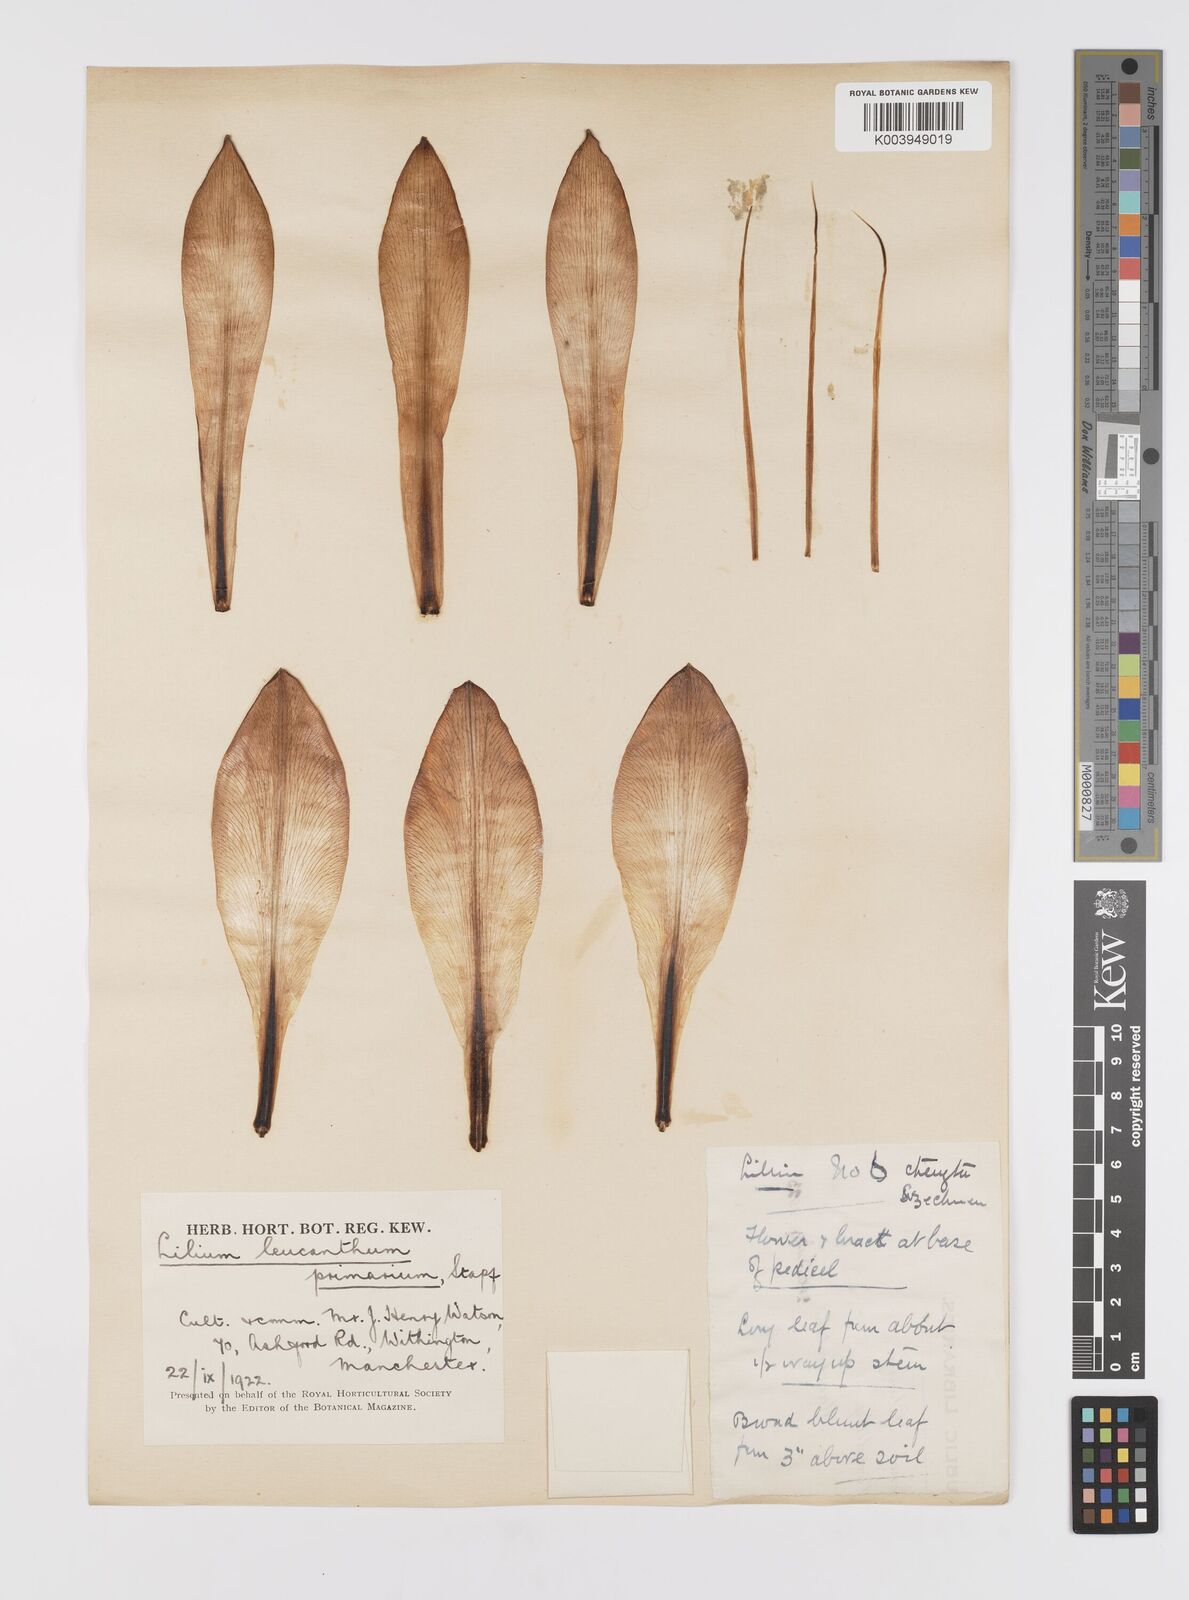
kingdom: Plantae
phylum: Tracheophyta
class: Liliopsida
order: Liliales
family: Liliaceae
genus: Lilium
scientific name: Lilium sargentiae
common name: Sargent lily
